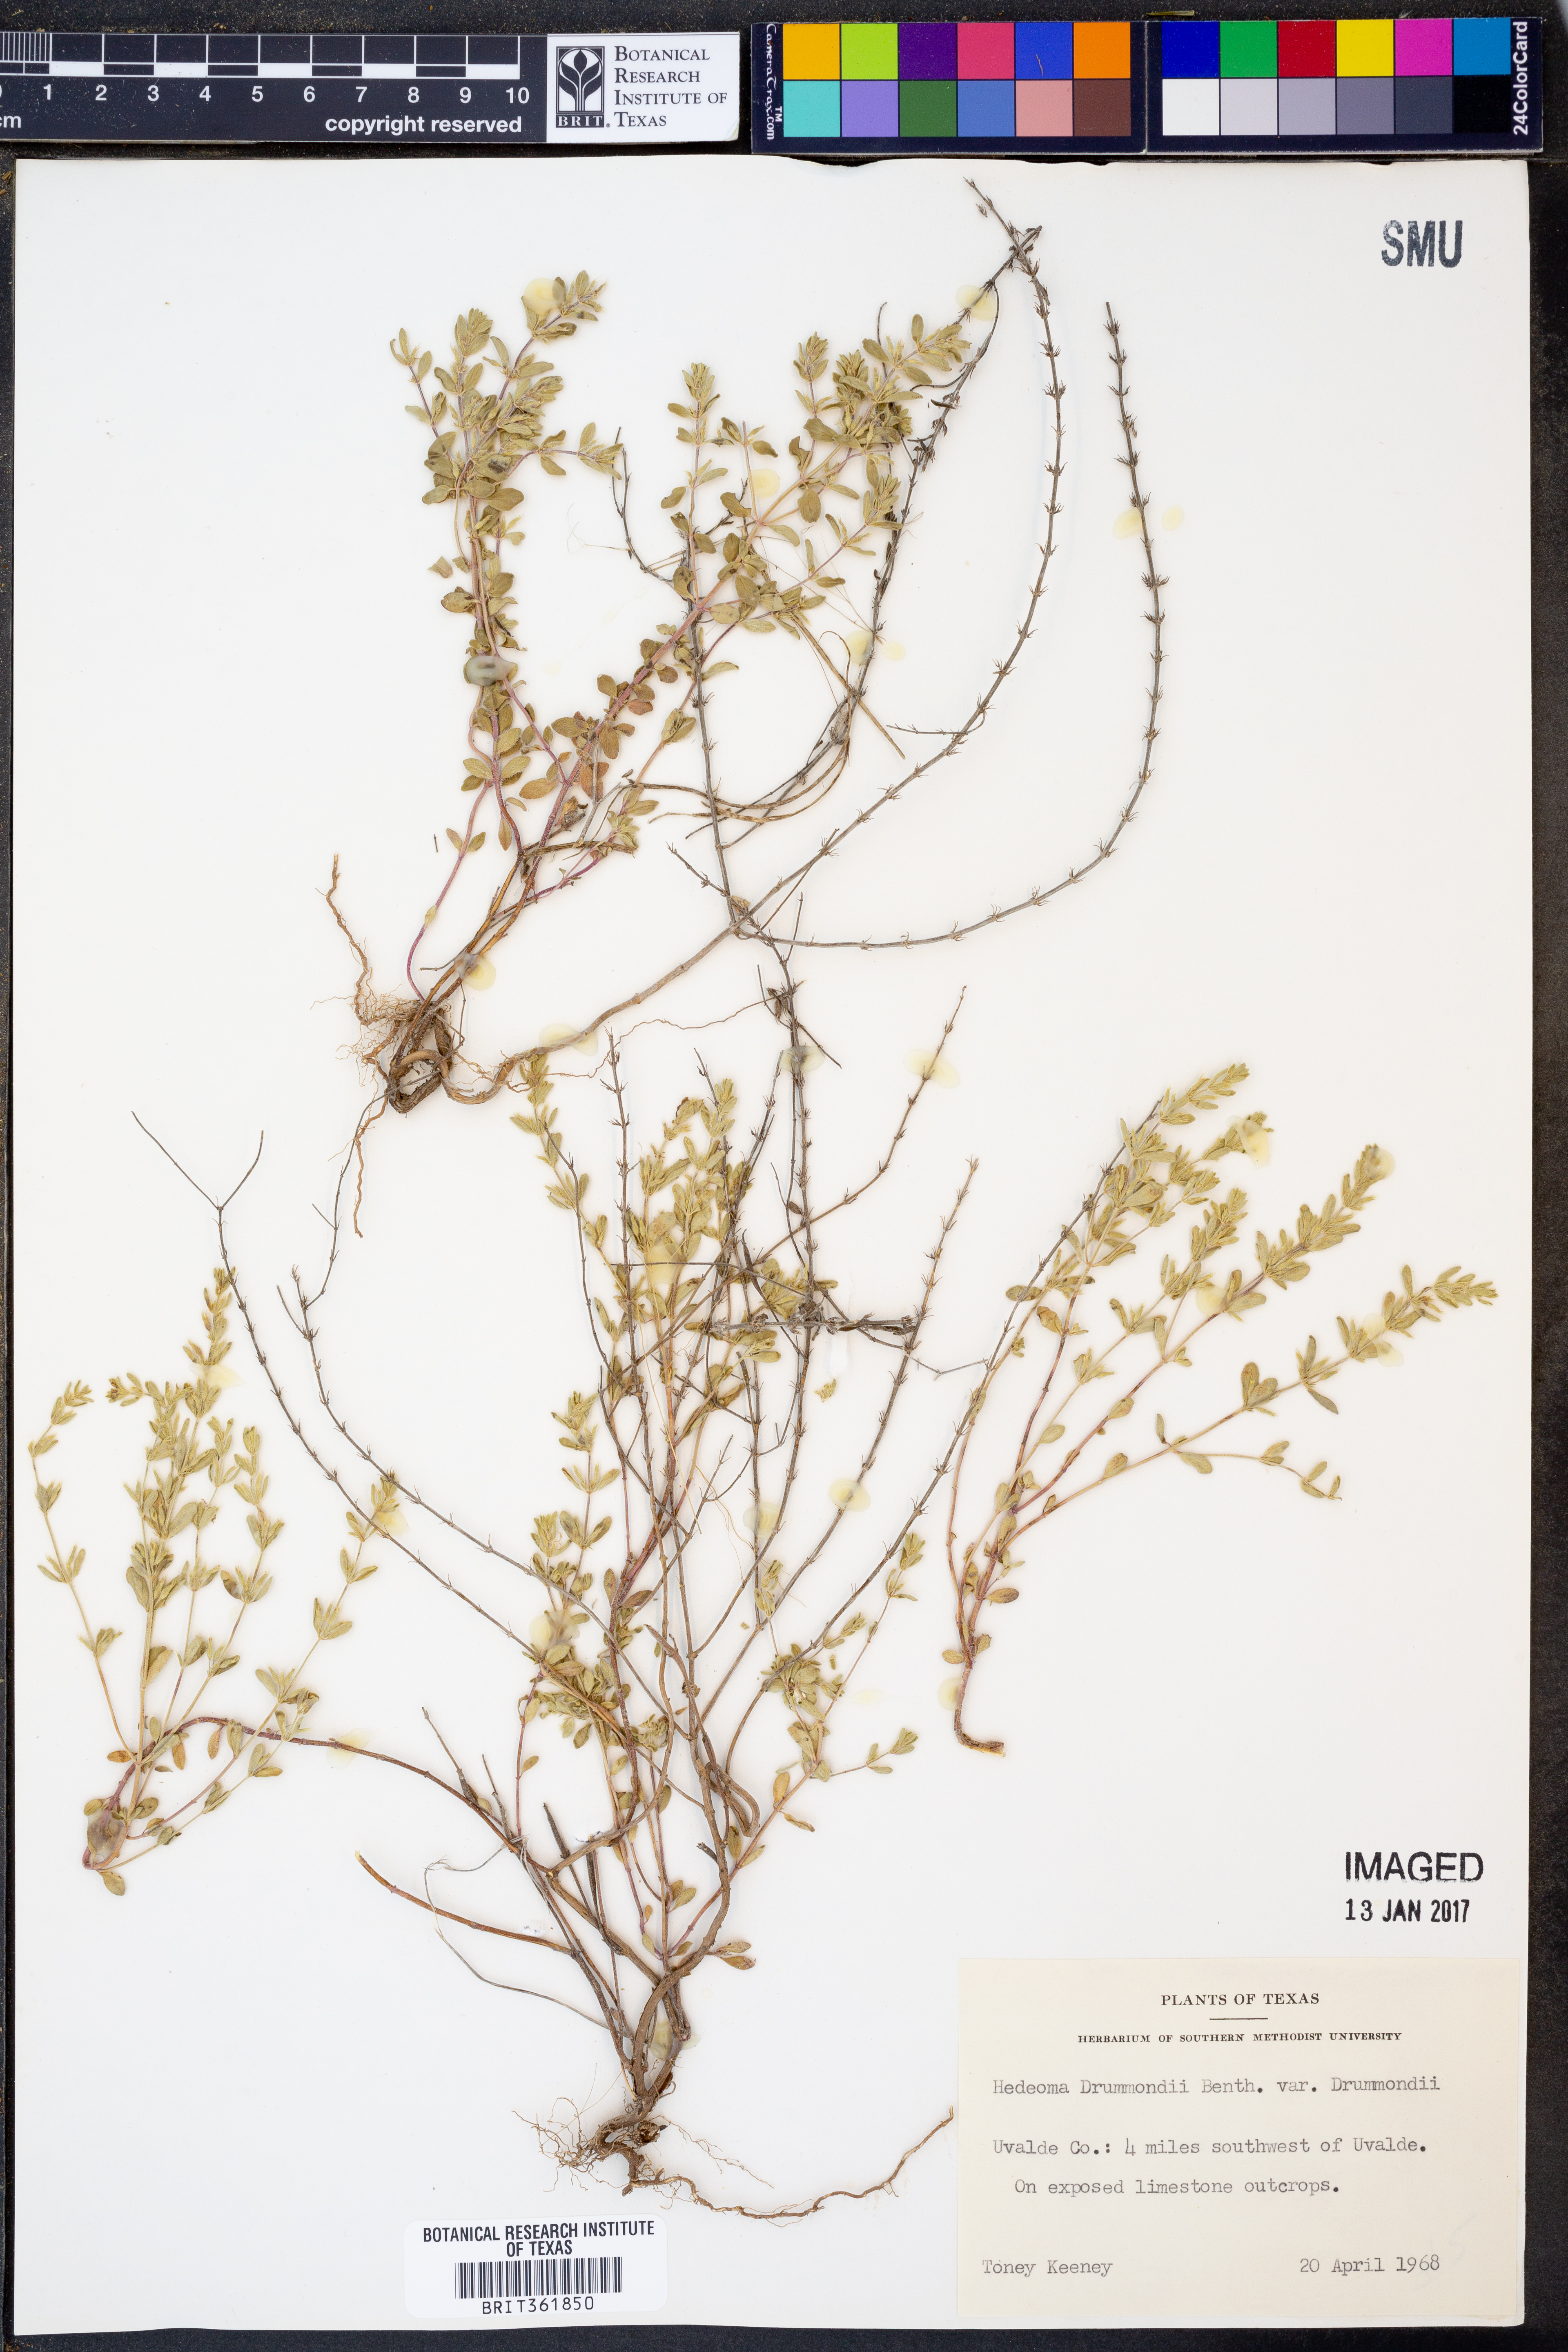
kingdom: Plantae
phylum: Tracheophyta
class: Magnoliopsida
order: Lamiales
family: Lamiaceae
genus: Hedeoma
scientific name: Hedeoma drummondii
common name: New mexico pennyroyal
